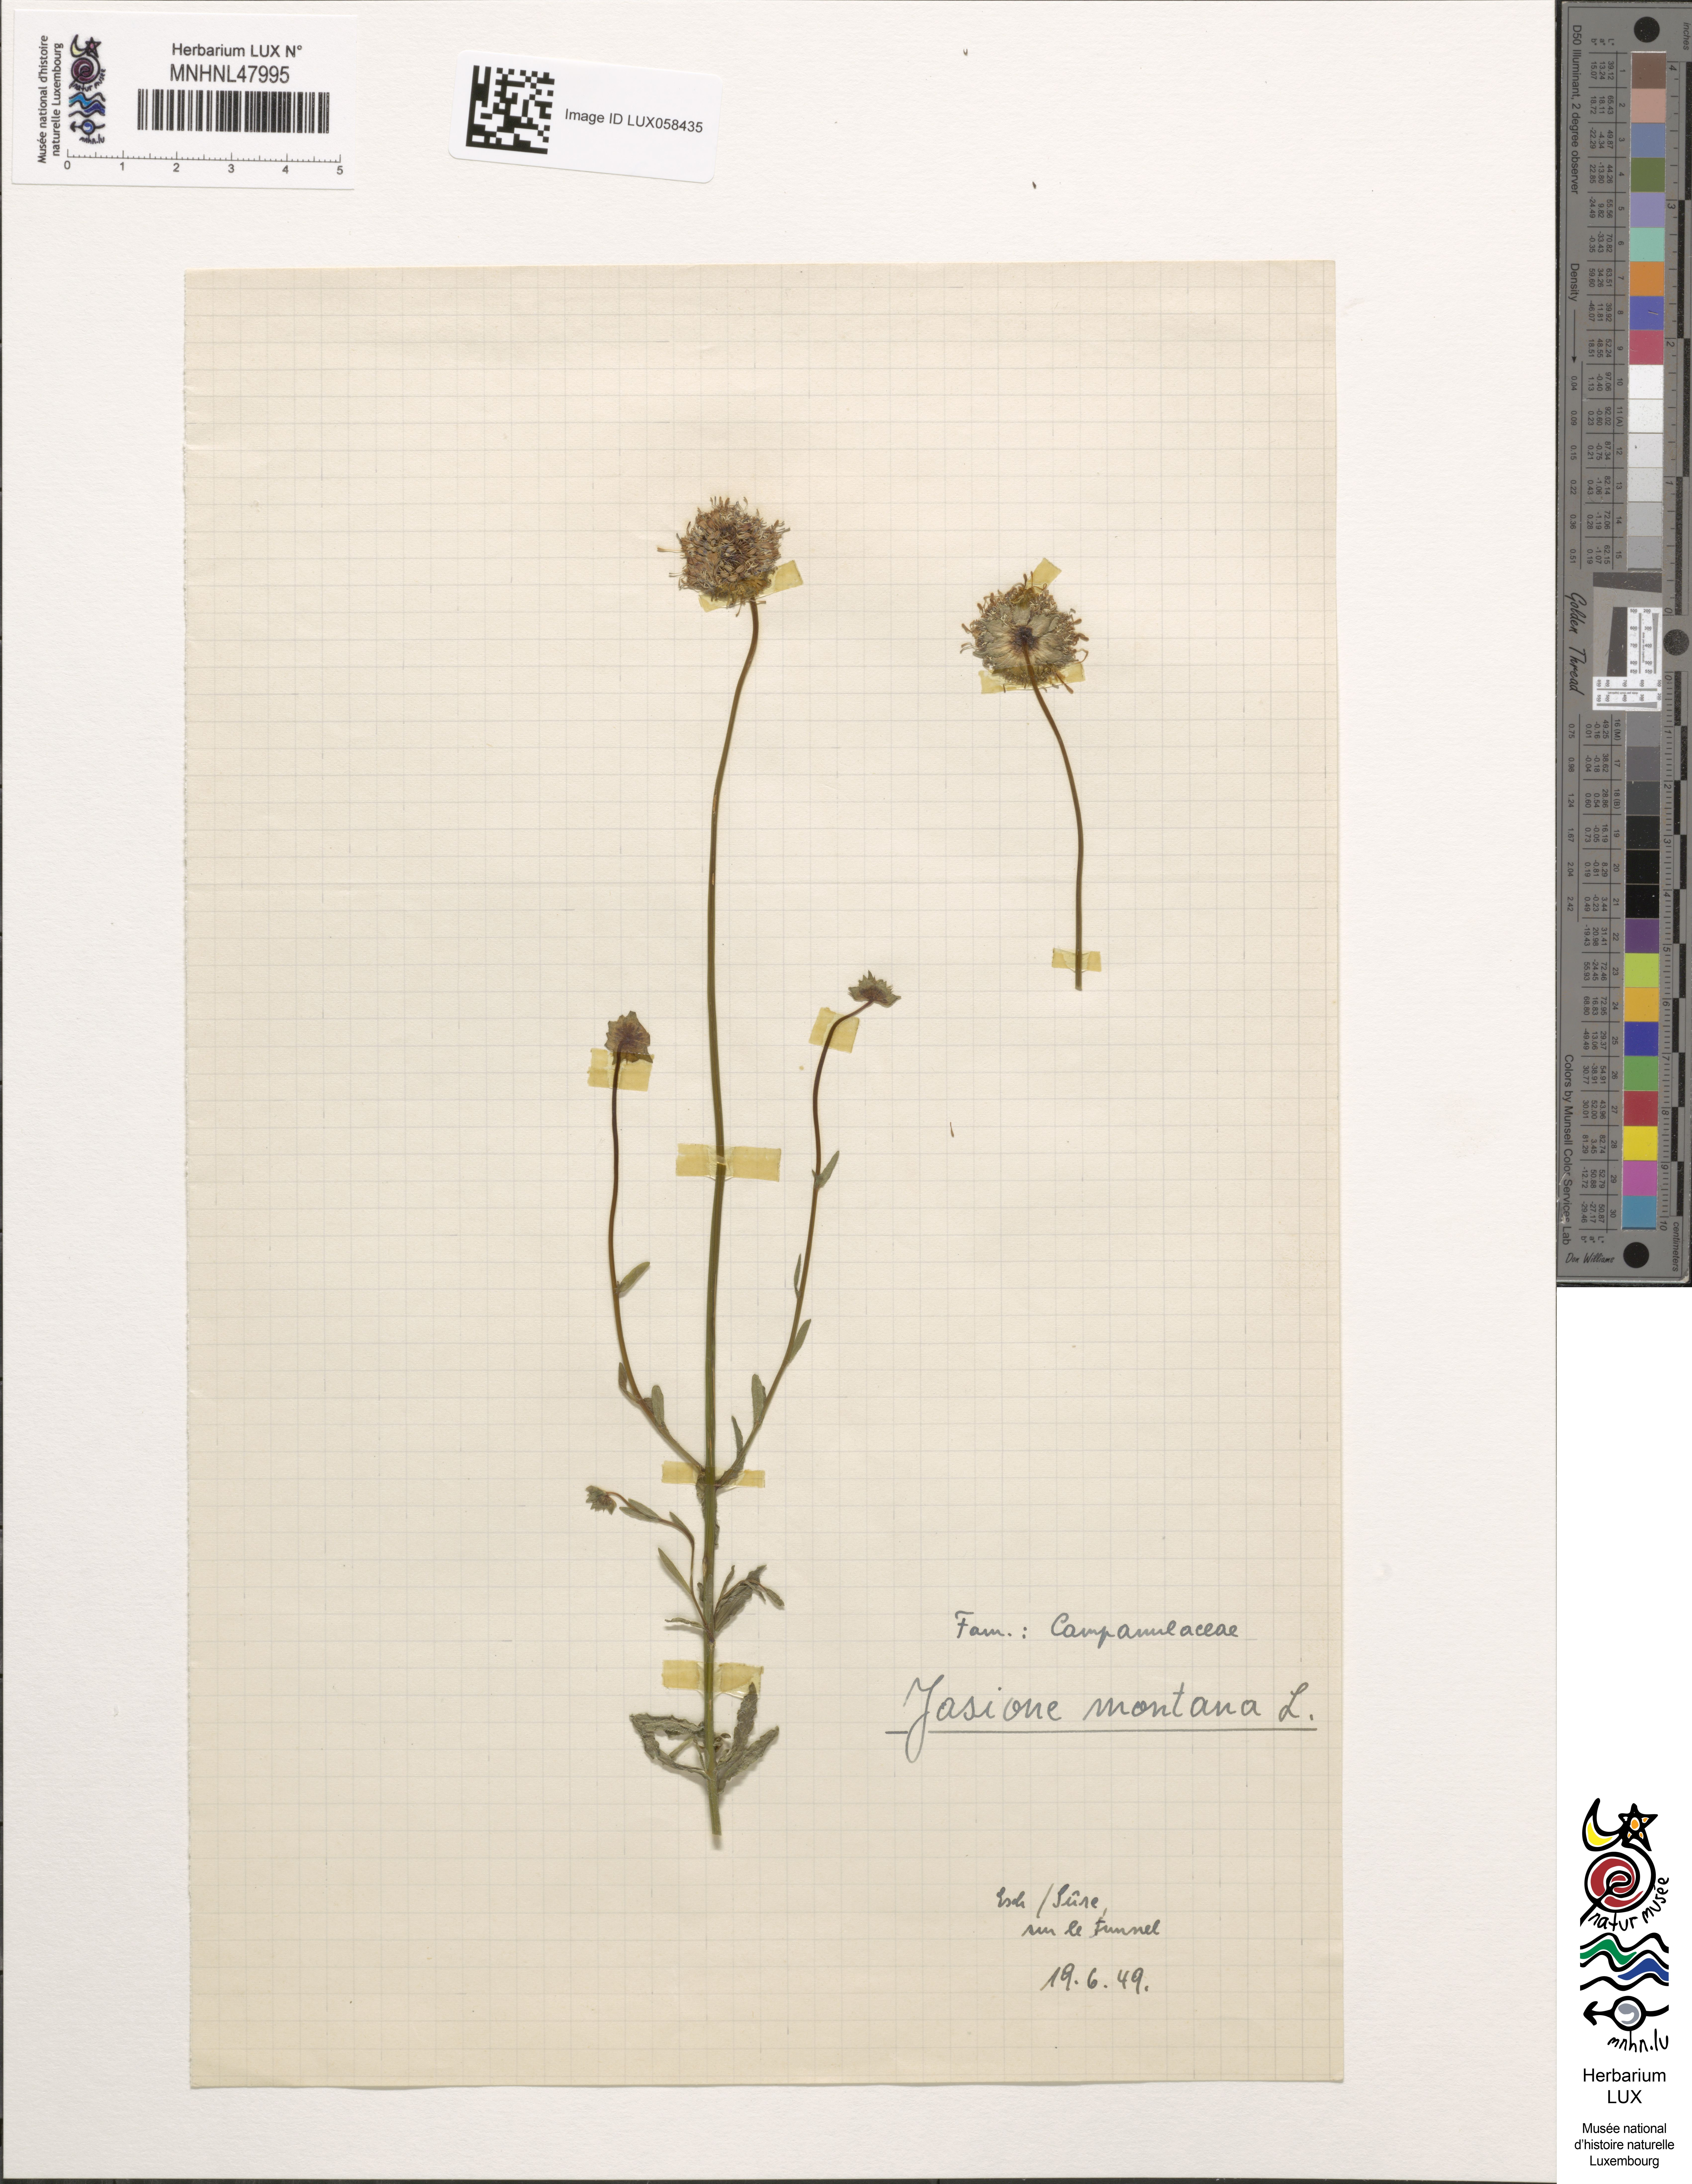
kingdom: Plantae
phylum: Tracheophyta
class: Magnoliopsida
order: Asterales
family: Campanulaceae
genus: Jasione
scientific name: Jasione montana
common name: Sheep's-bit
